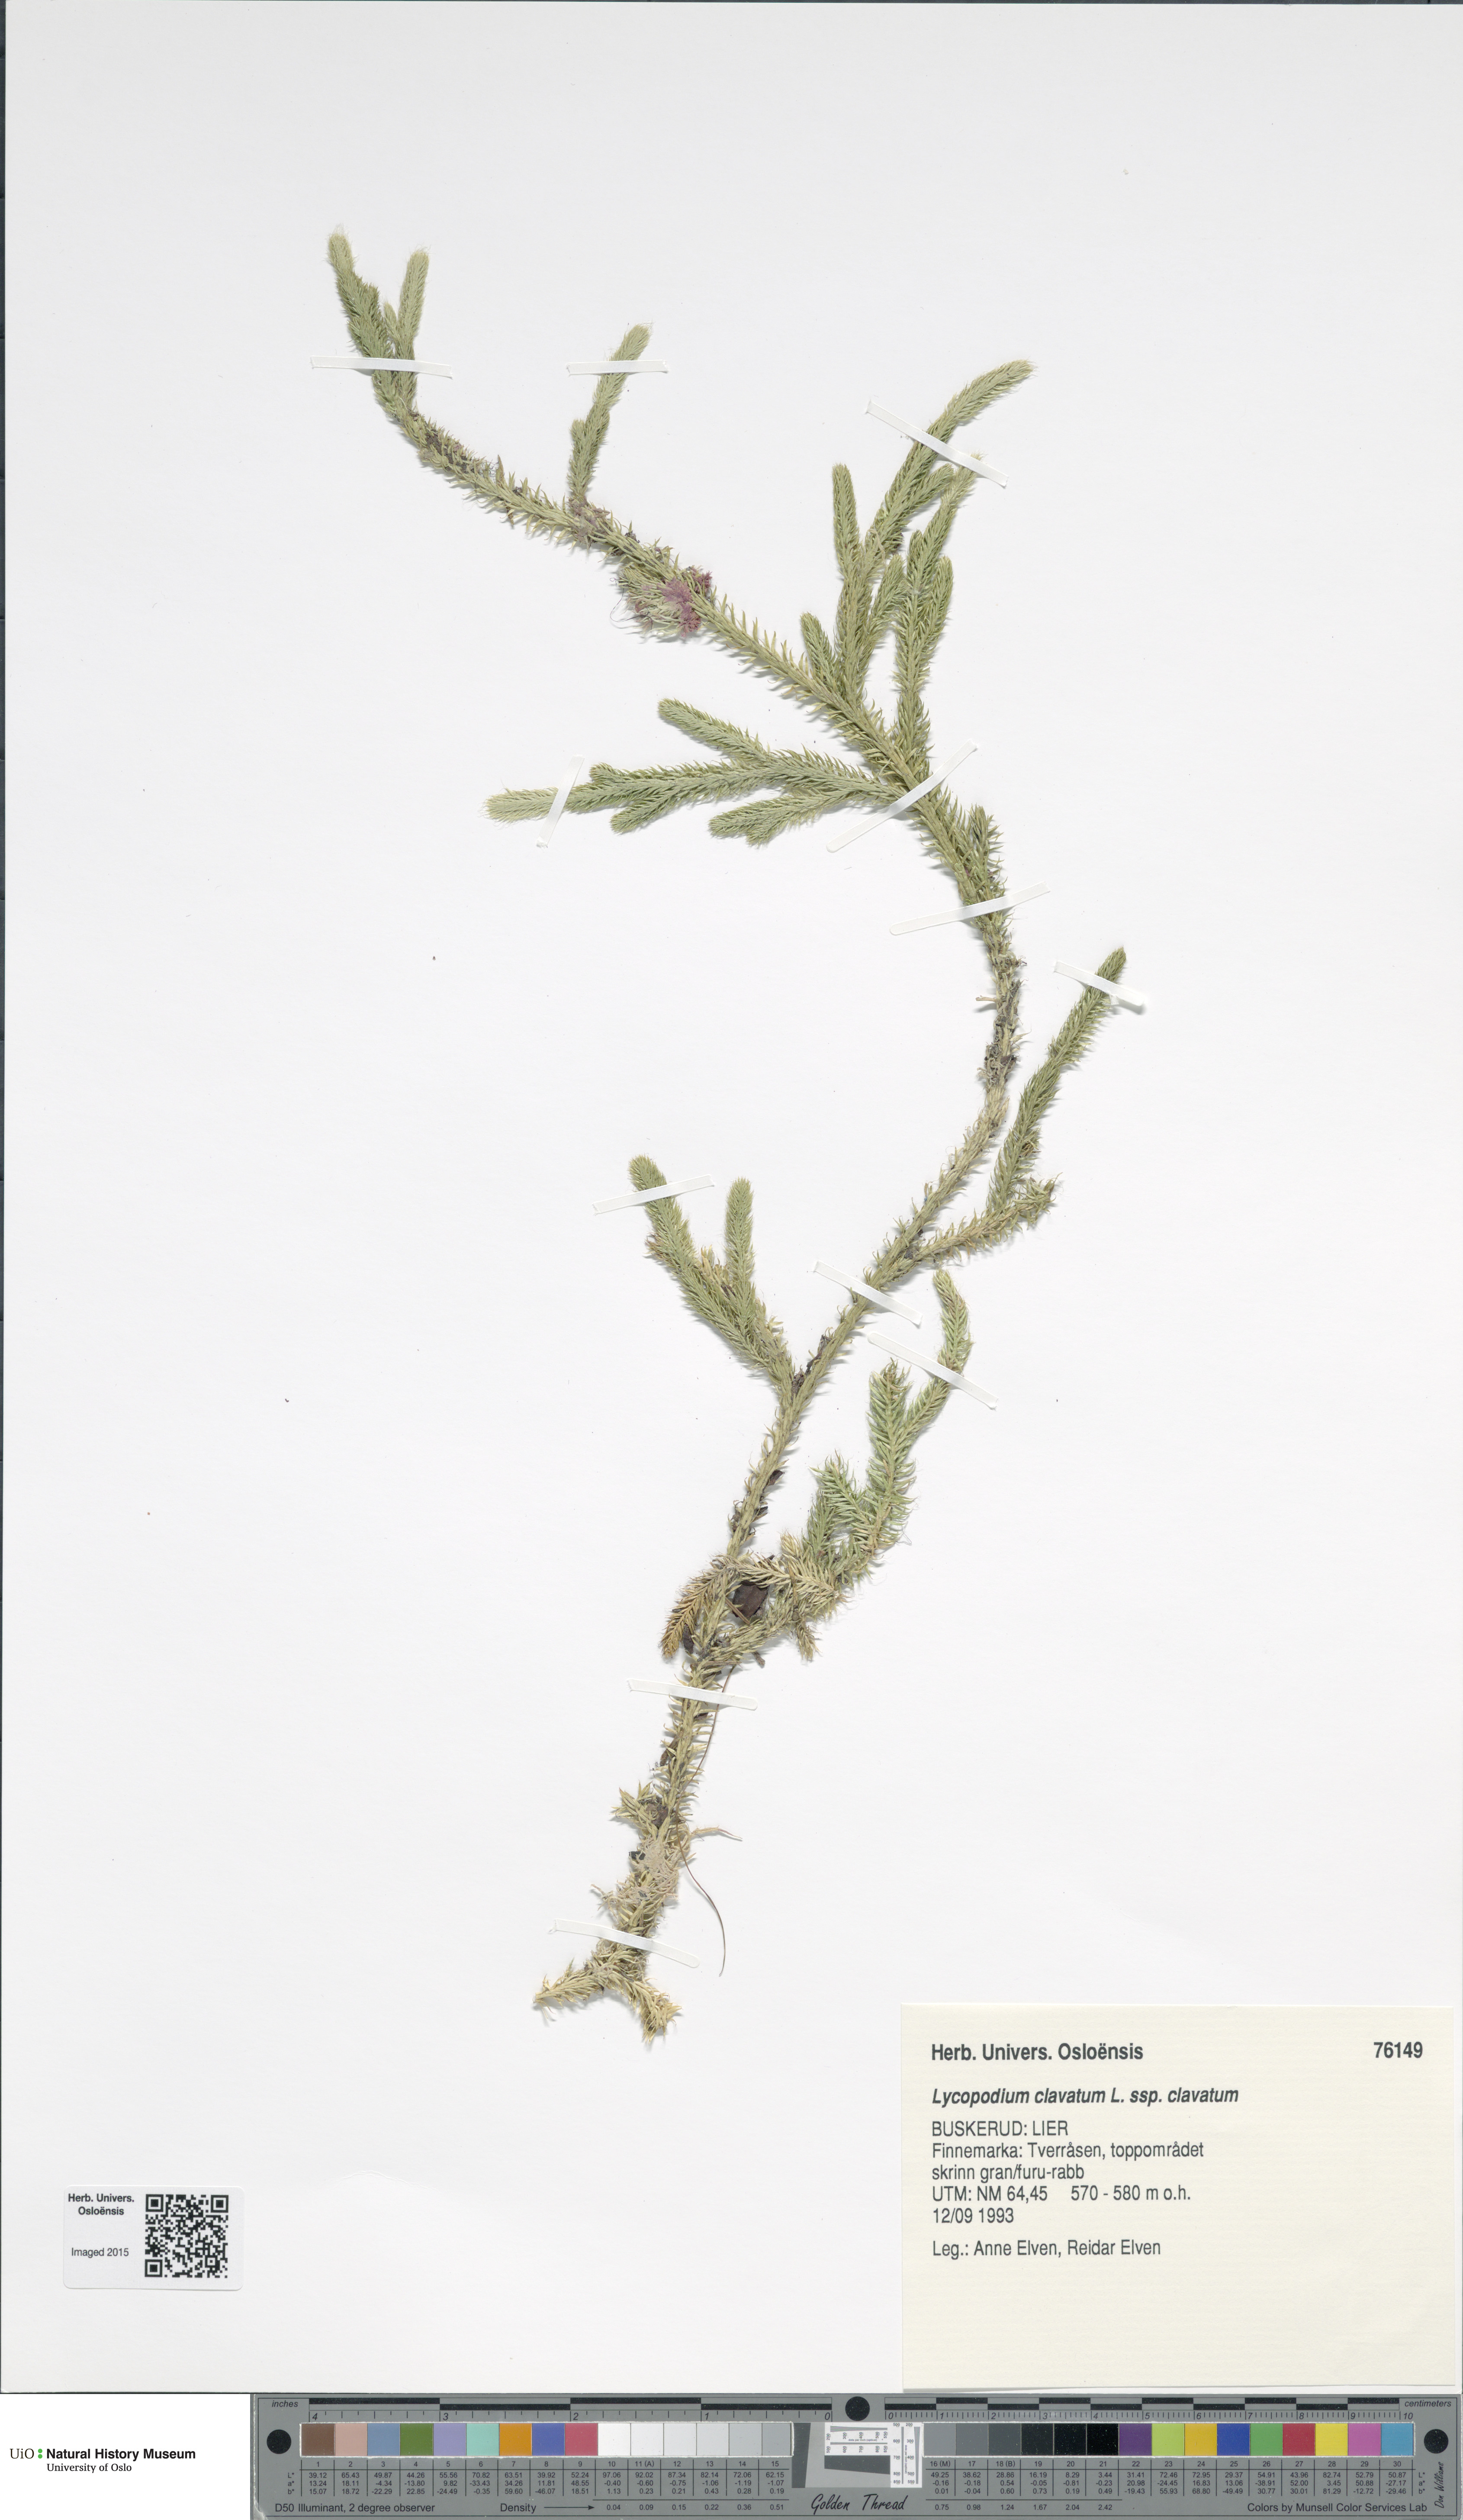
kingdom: Plantae
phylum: Tracheophyta
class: Lycopodiopsida
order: Lycopodiales
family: Lycopodiaceae
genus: Lycopodium
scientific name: Lycopodium clavatum
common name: Stag's-horn clubmoss
